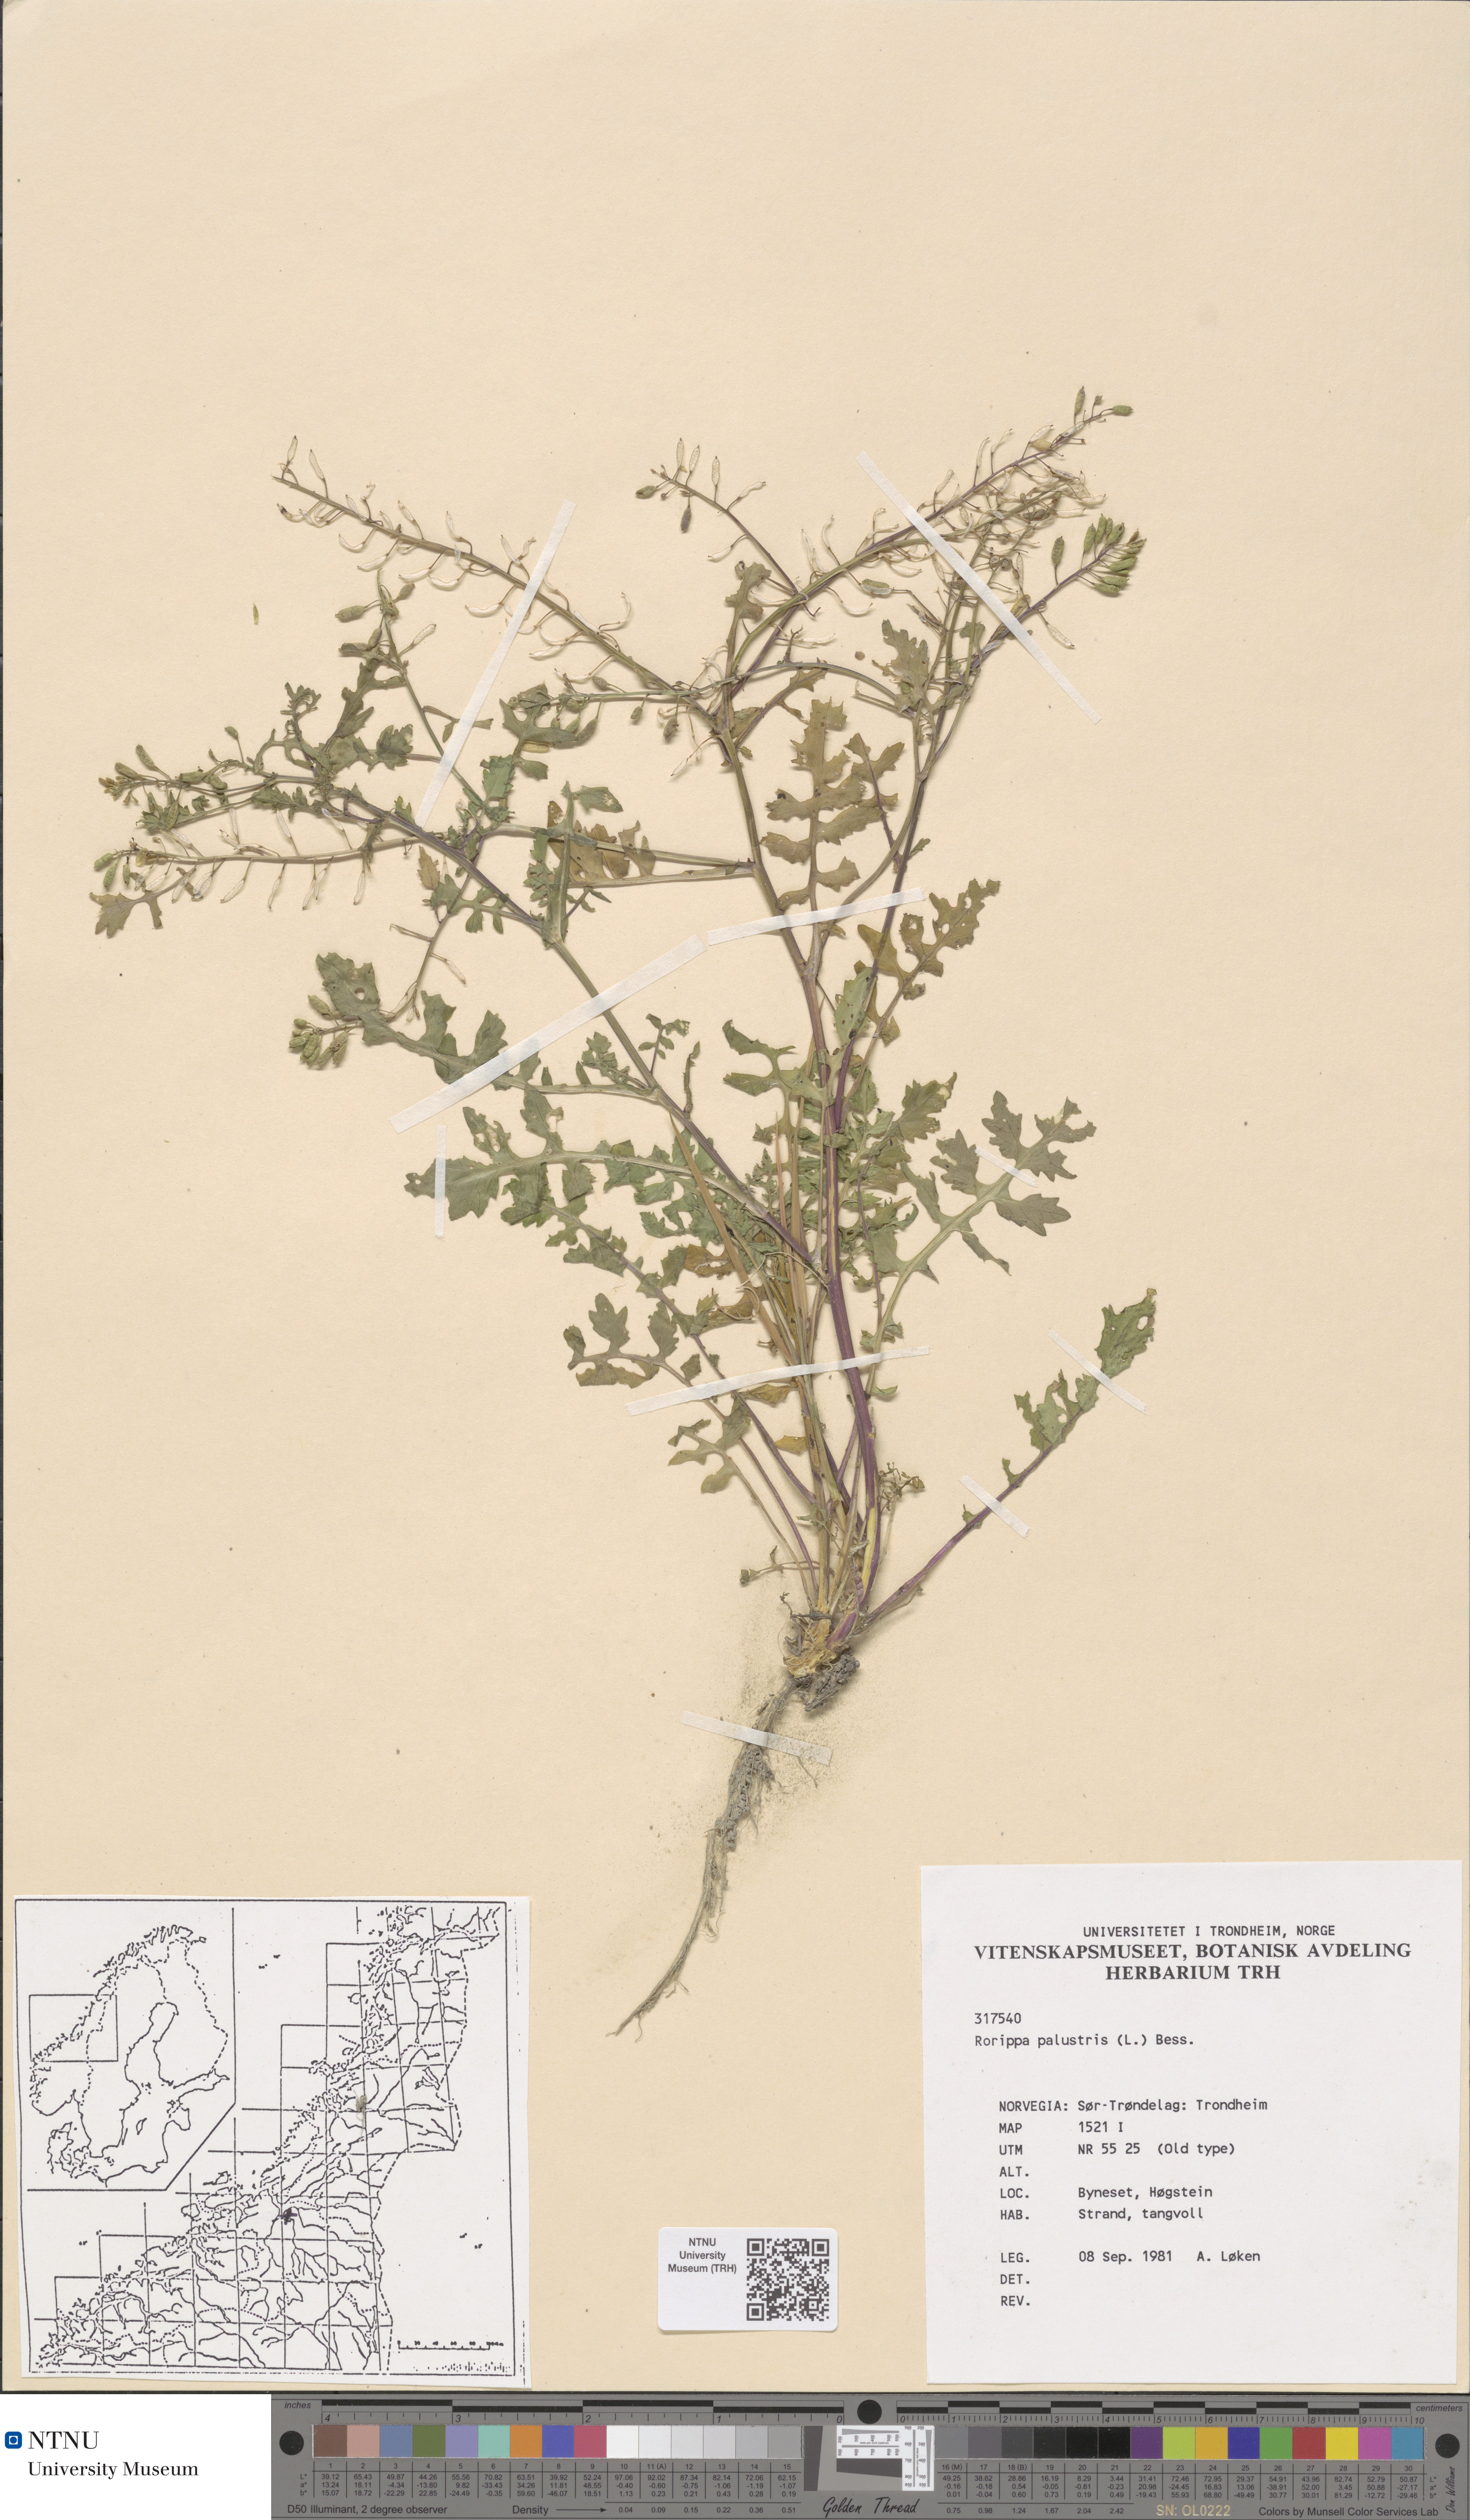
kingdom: Plantae
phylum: Tracheophyta
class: Magnoliopsida
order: Brassicales
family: Brassicaceae
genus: Rorippa
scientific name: Rorippa palustris
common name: Marsh yellow-cress
